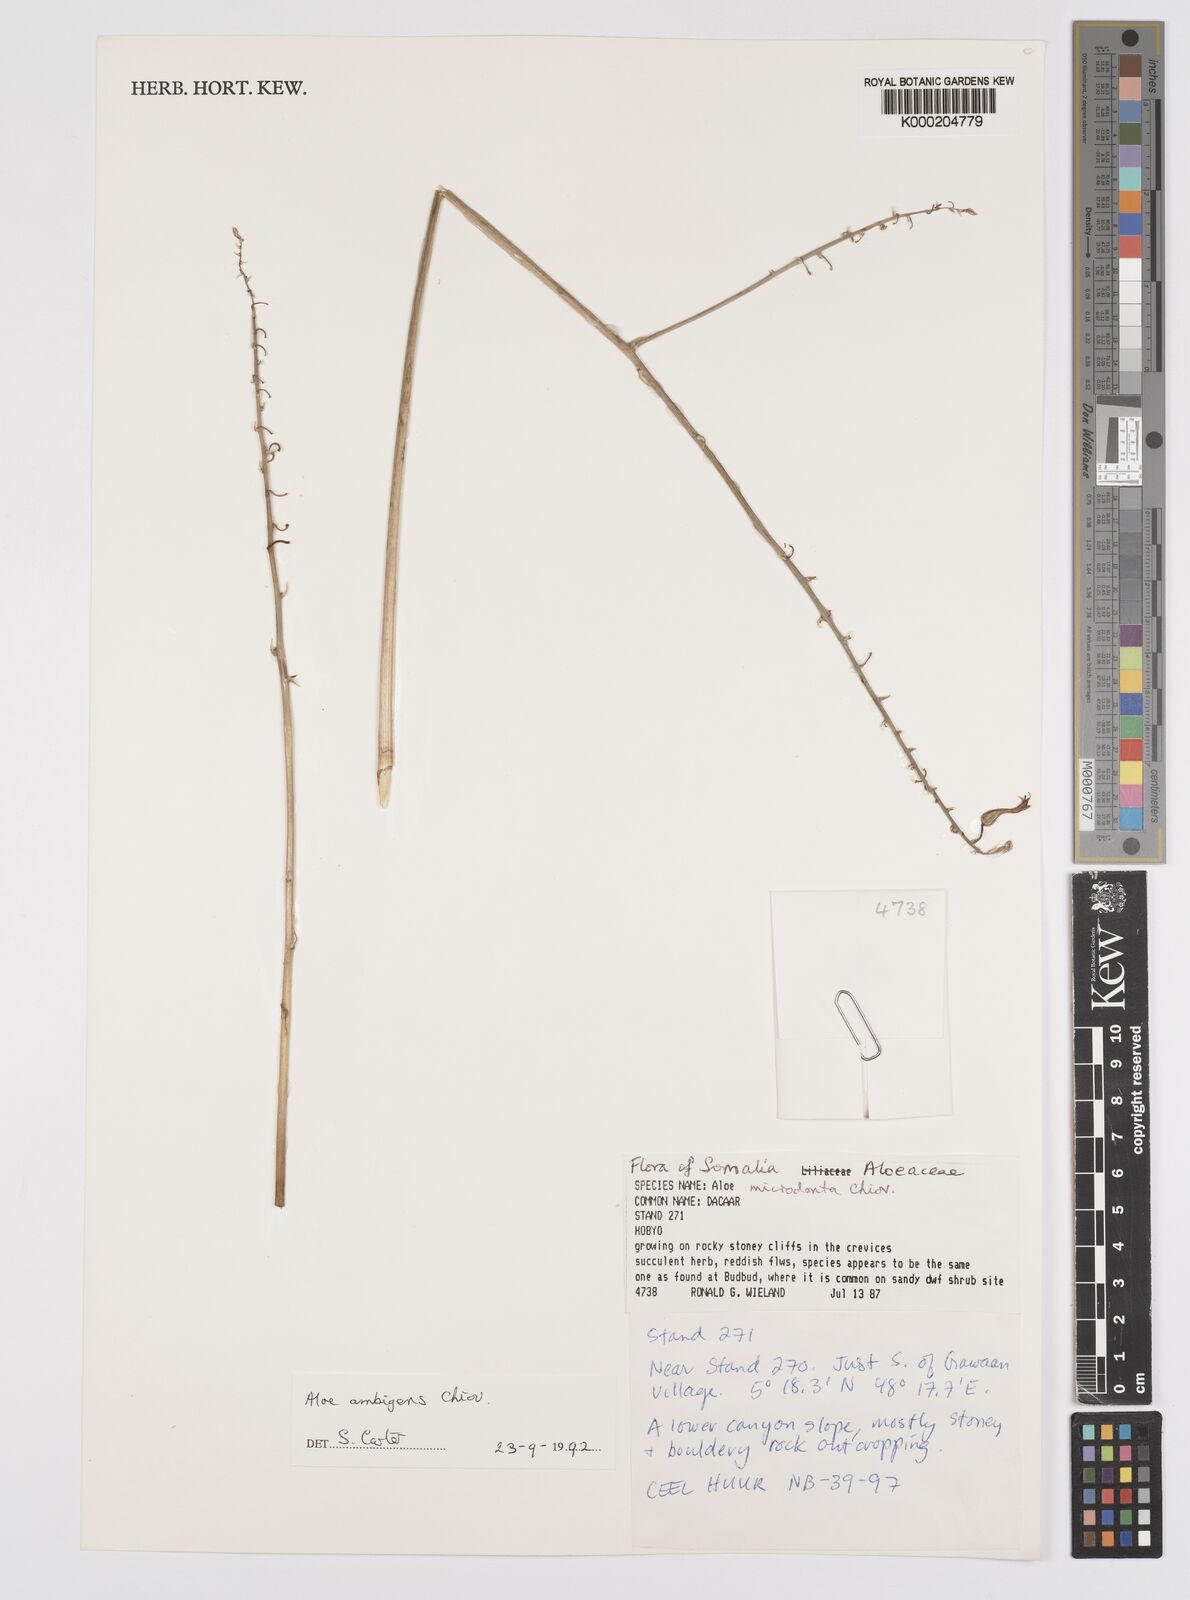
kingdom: Plantae
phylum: Tracheophyta
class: Liliopsida
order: Asparagales
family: Asphodelaceae
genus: Aloe
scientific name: Aloe ambigens
